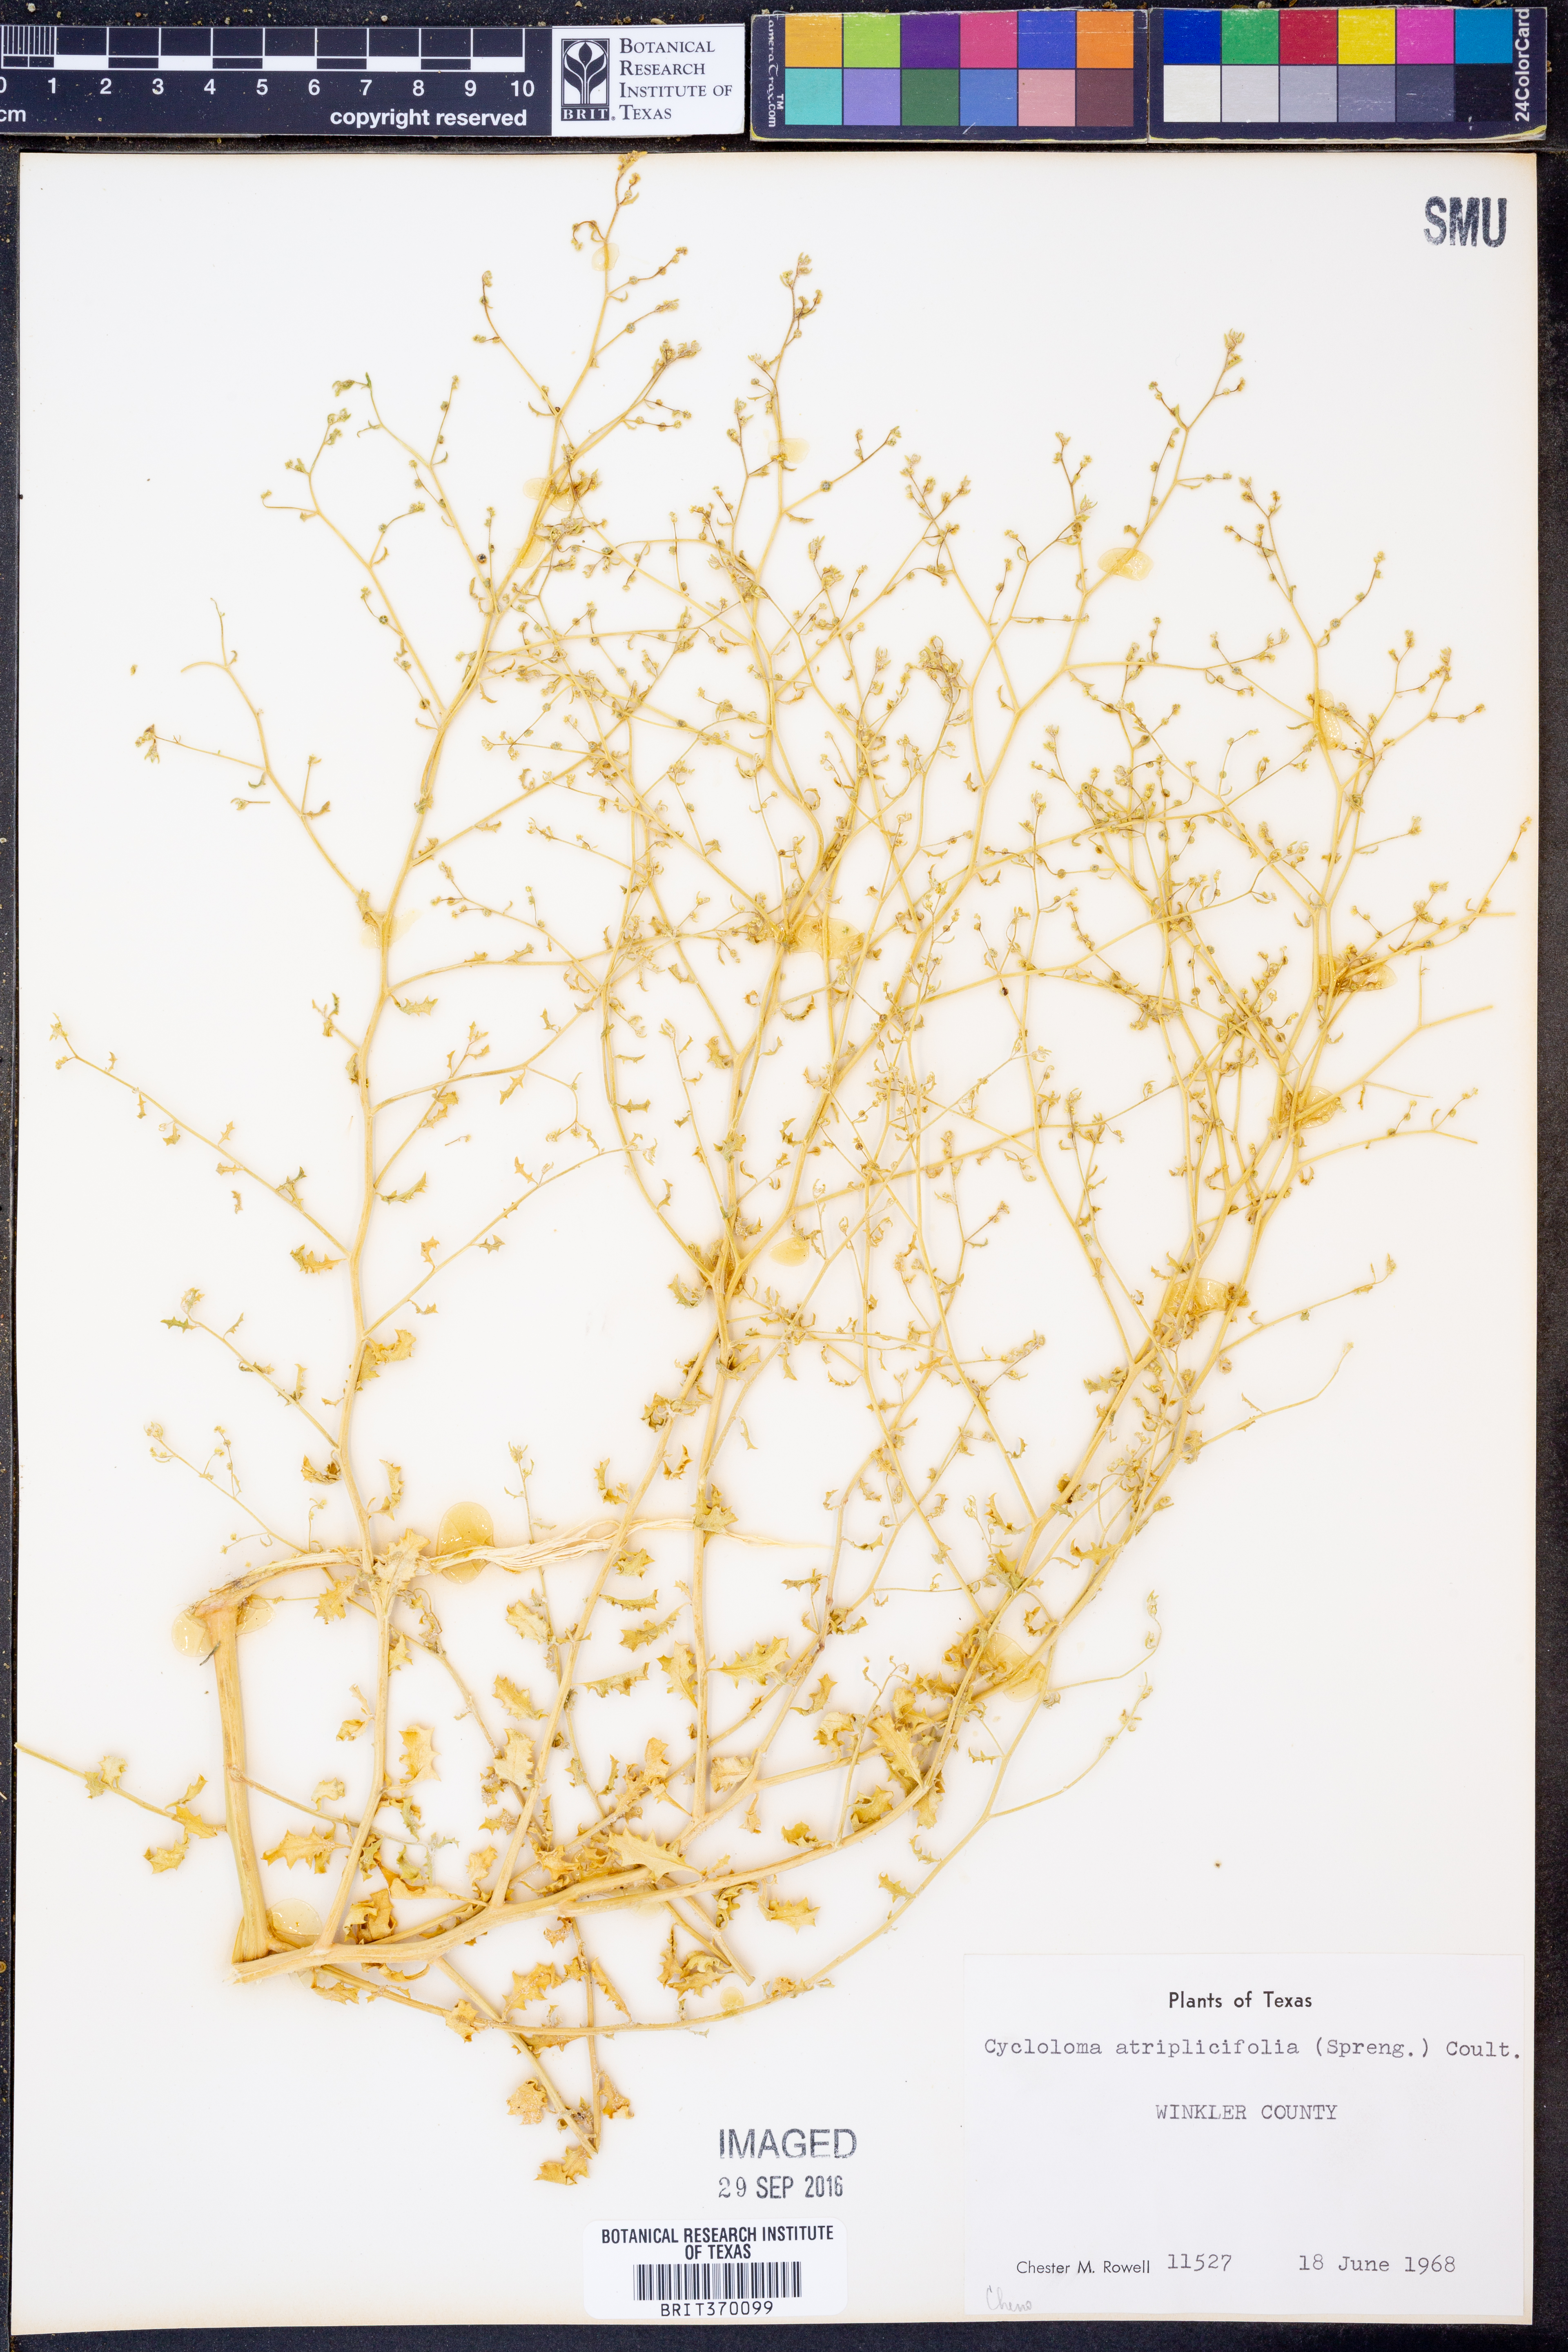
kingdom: Plantae
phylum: Tracheophyta
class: Magnoliopsida
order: Caryophyllales
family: Amaranthaceae
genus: Dysphania
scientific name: Dysphania atriplicifolia
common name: Plains tumbleweed
